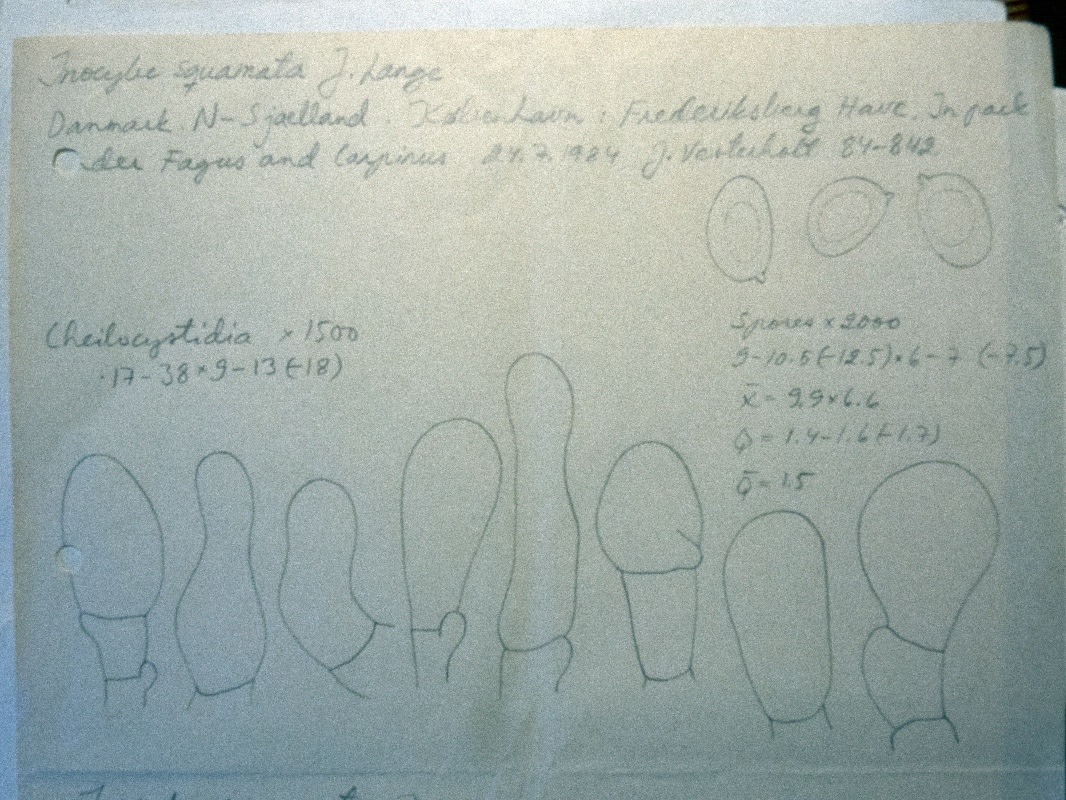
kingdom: Fungi
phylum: Basidiomycota
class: Agaricomycetes
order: Agaricales
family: Inocybaceae
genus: Pseudosperma
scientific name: Pseudosperma
